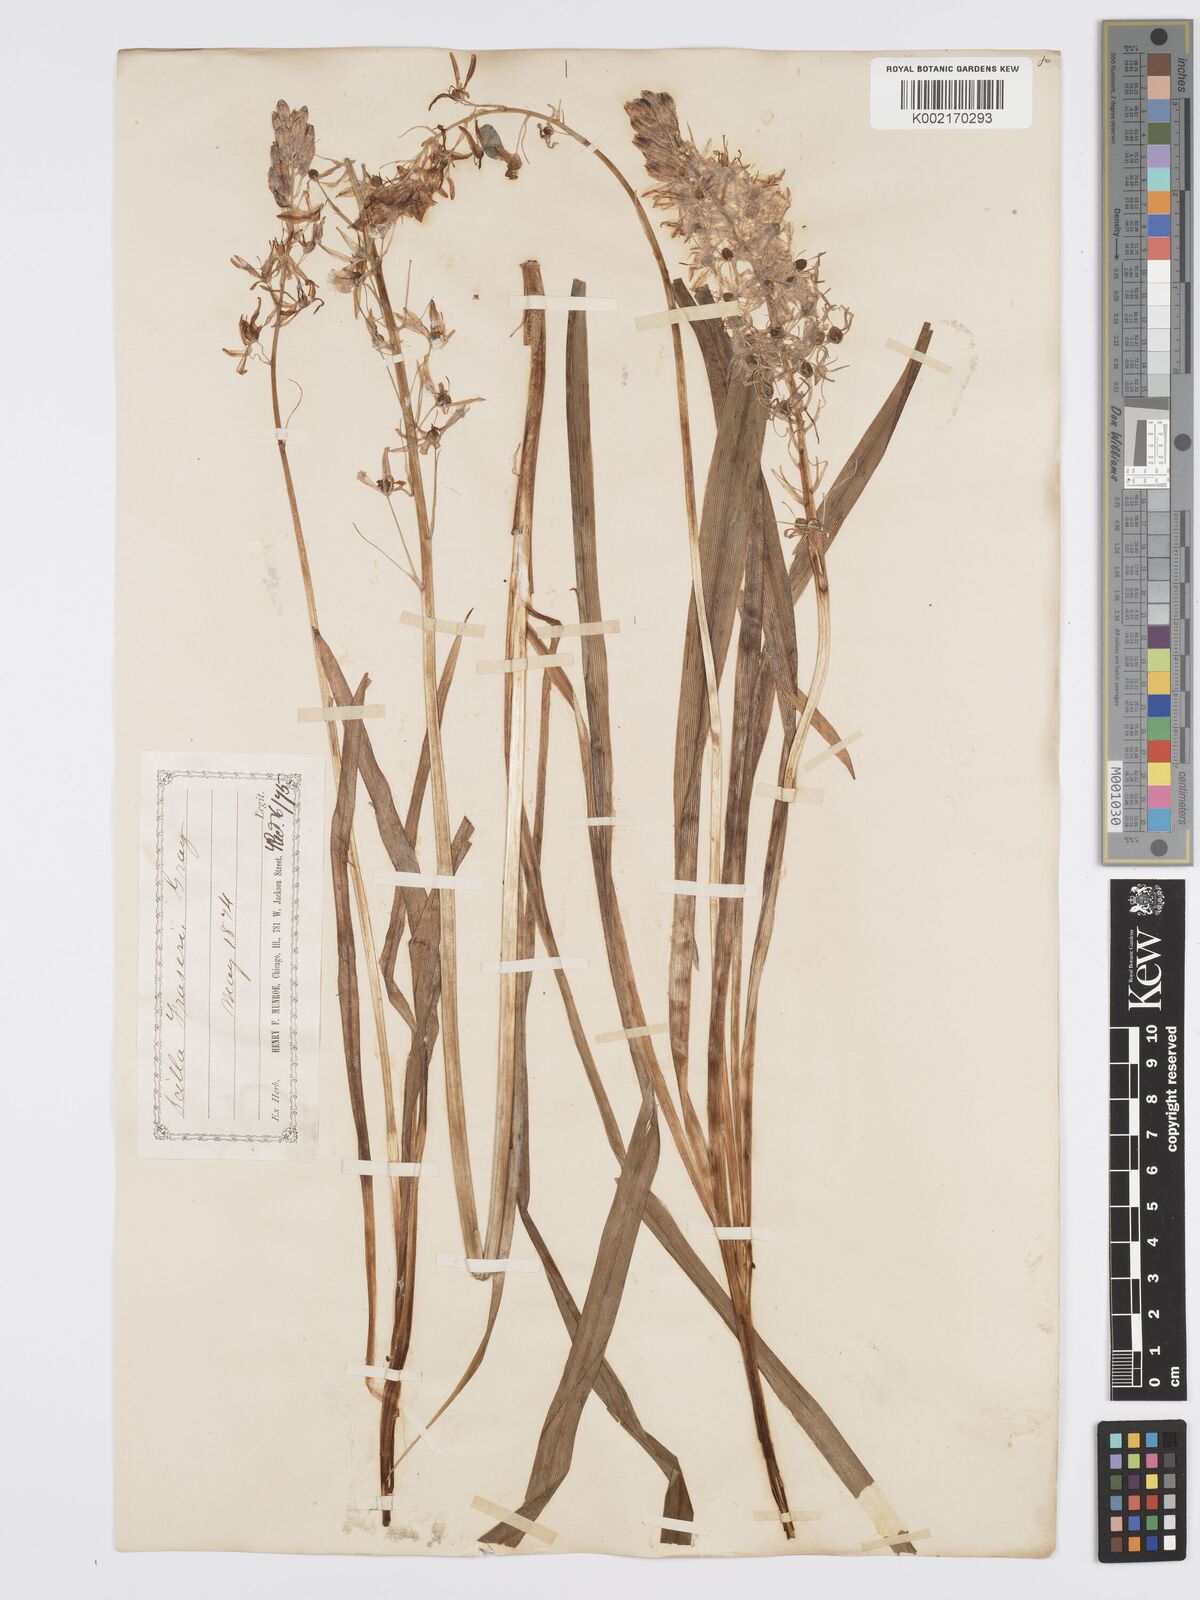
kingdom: Plantae
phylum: Tracheophyta
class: Liliopsida
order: Asparagales
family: Asparagaceae
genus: Camassia
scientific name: Camassia scilloides
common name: Wild hyacinth
